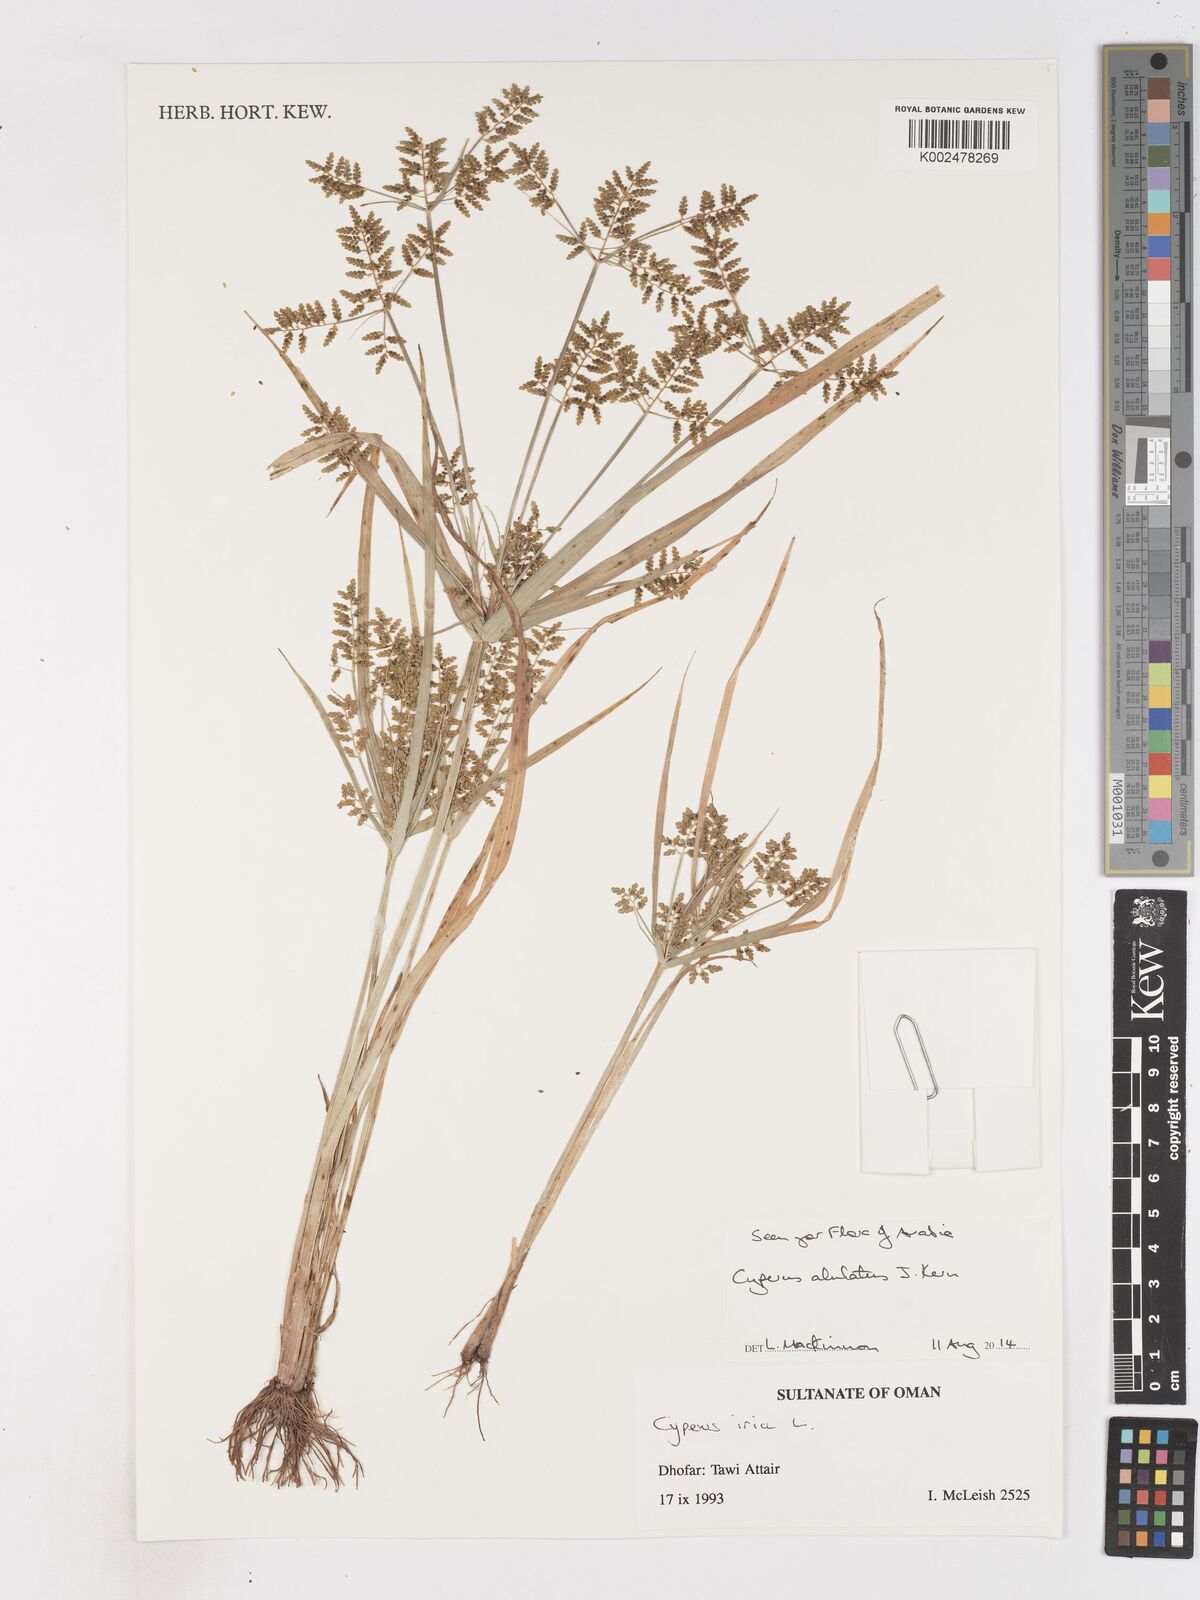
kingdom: Plantae
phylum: Tracheophyta
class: Liliopsida
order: Poales
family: Cyperaceae
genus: Cyperus
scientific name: Cyperus alulatus
